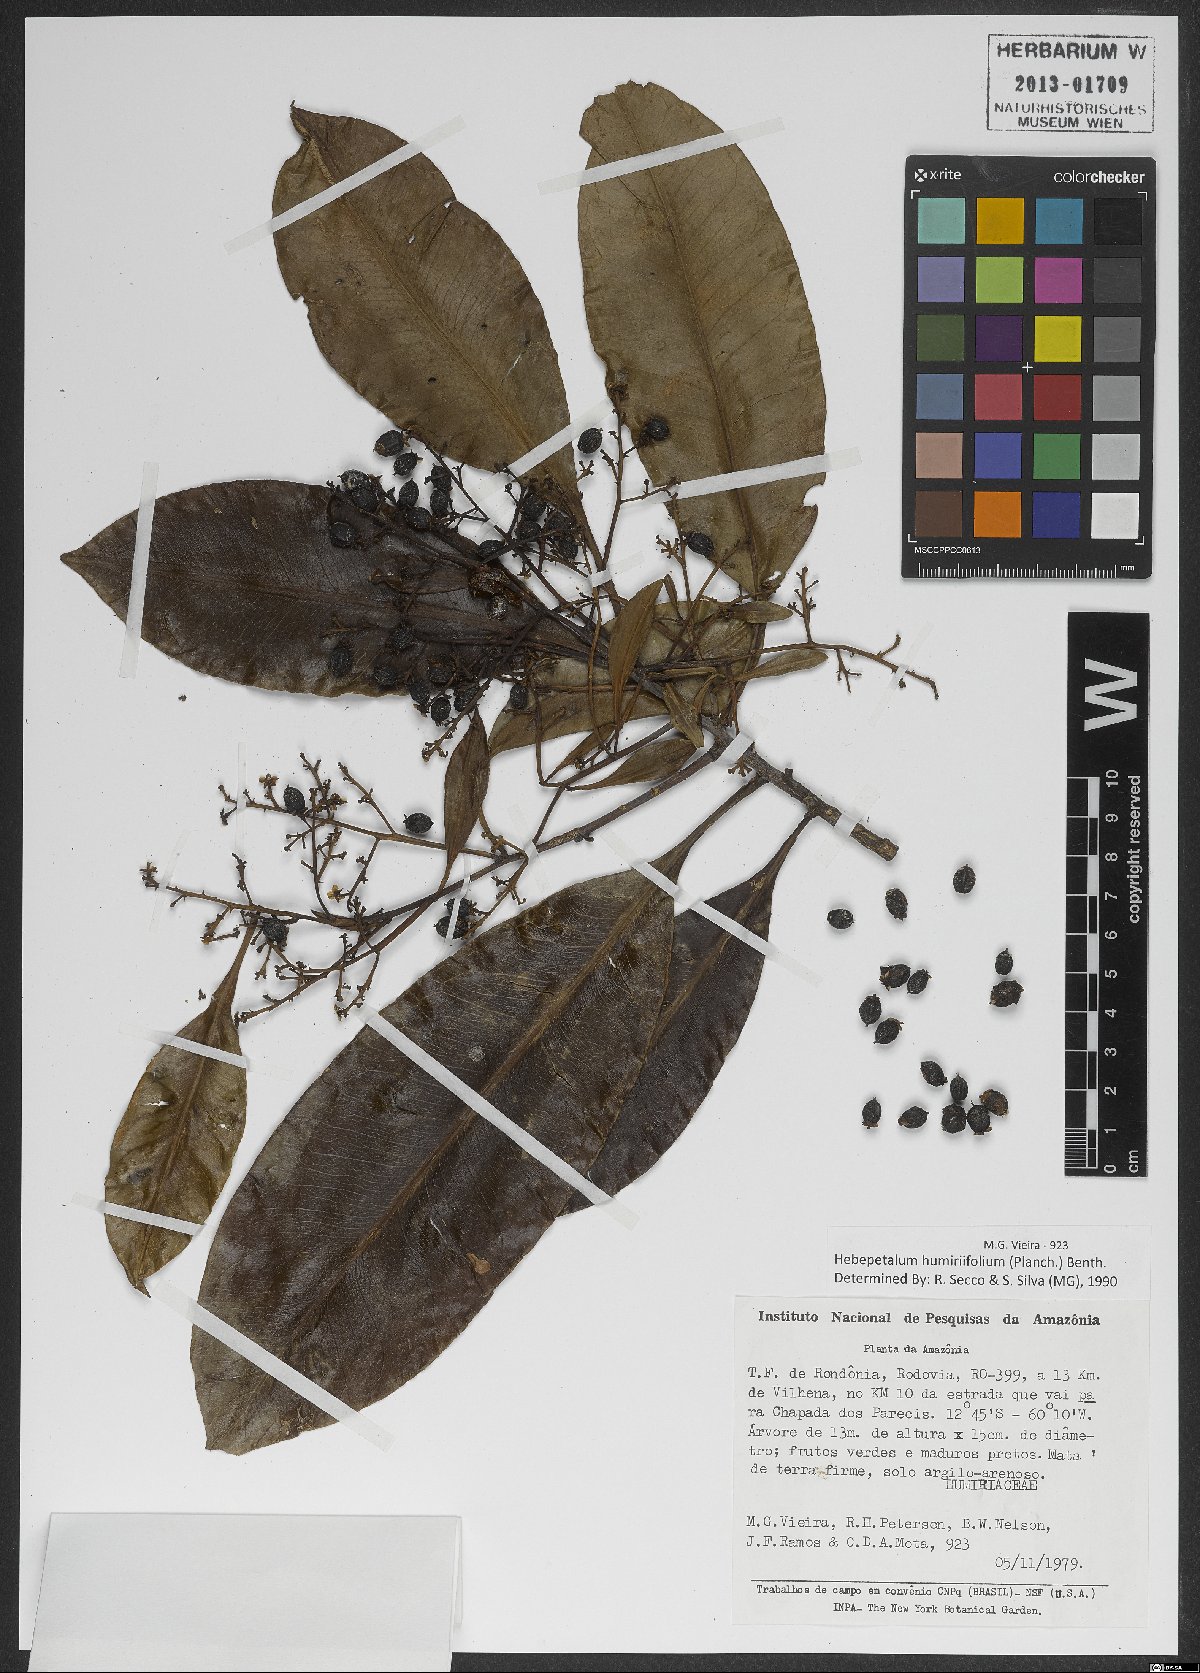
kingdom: Plantae
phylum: Tracheophyta
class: Magnoliopsida
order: Malpighiales
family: Linaceae
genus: Hebepetalum
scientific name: Hebepetalum humiriifolium
